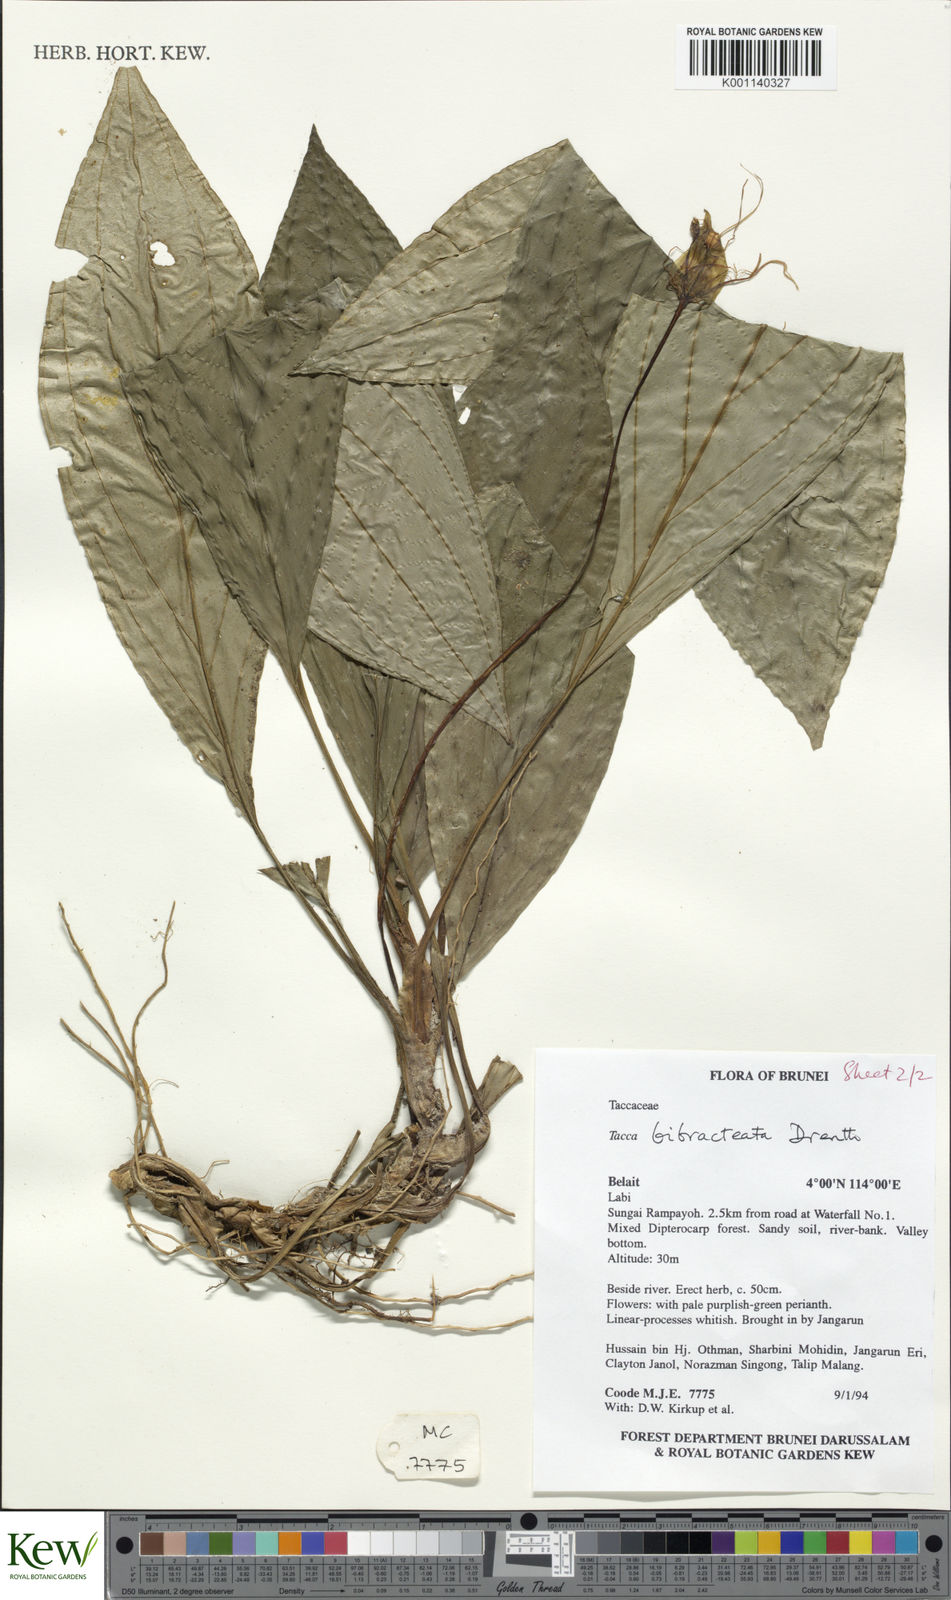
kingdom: Plantae
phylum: Tracheophyta
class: Liliopsida
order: Dioscoreales
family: Dioscoreaceae
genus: Tacca
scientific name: Tacca bibracteata
